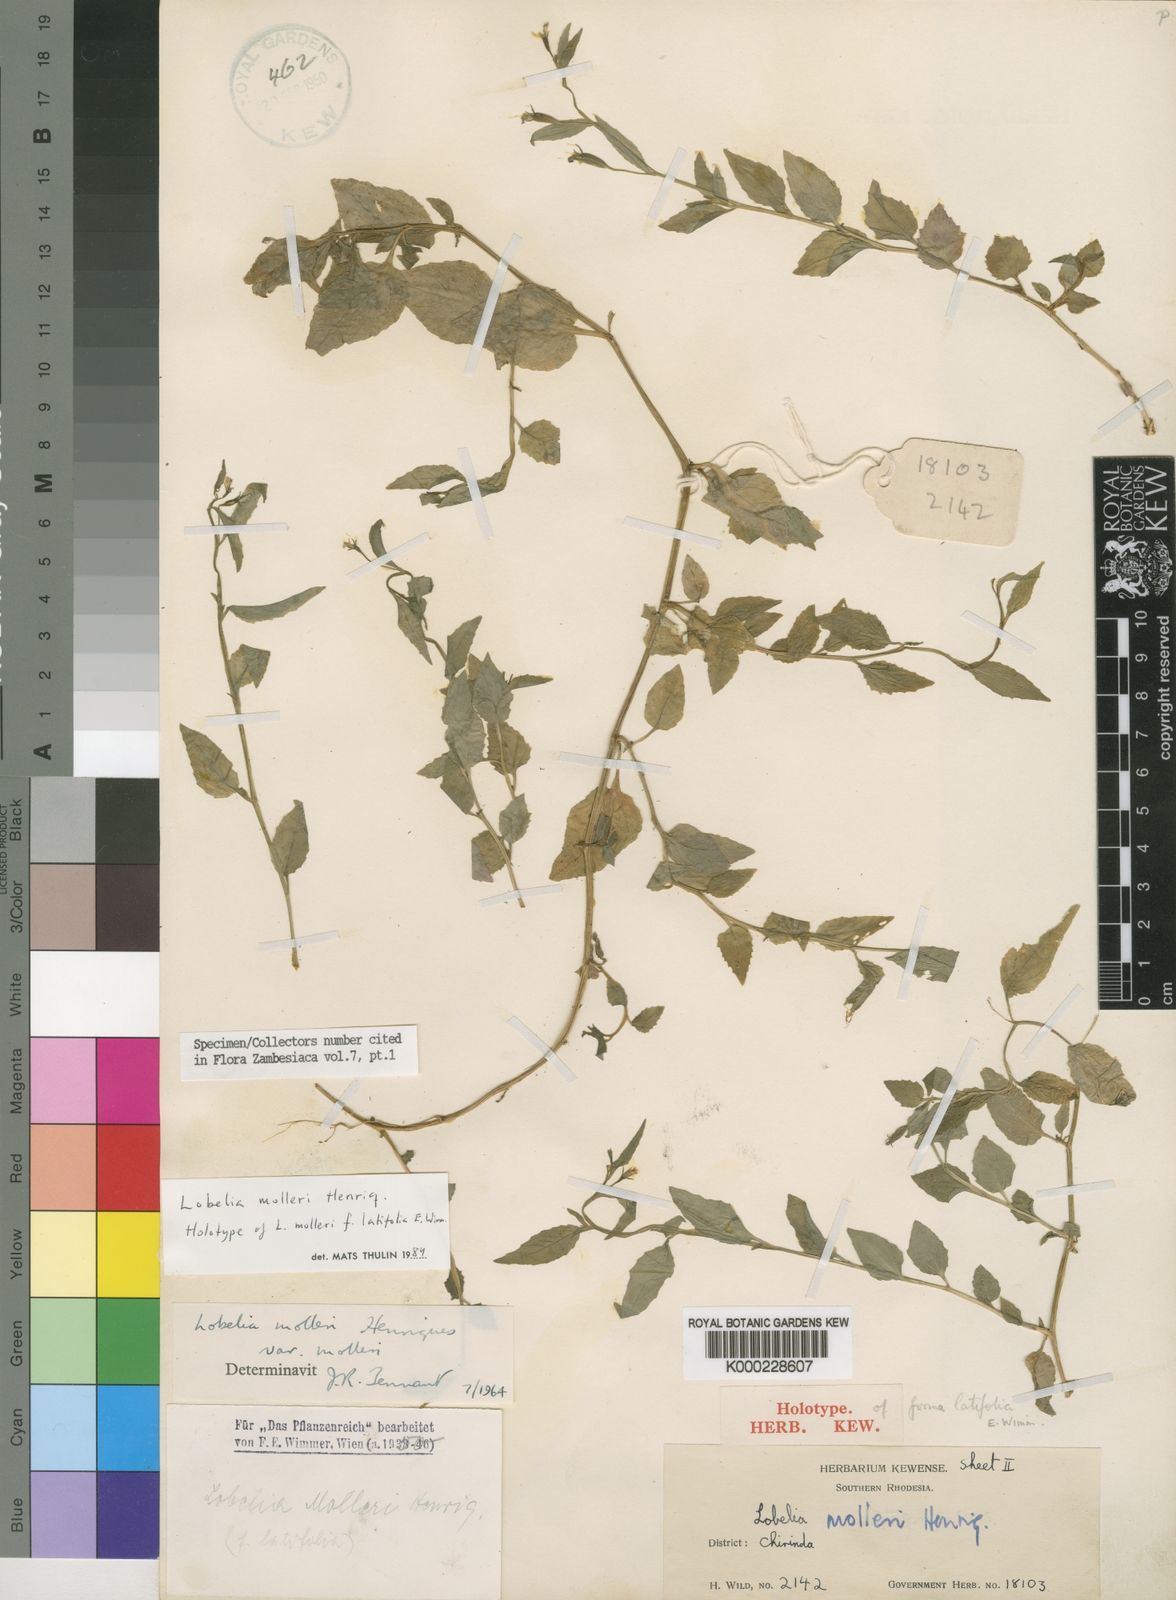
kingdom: Plantae
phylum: Tracheophyta
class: Magnoliopsida
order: Asterales
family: Campanulaceae
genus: Lobelia
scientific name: Lobelia molleri
